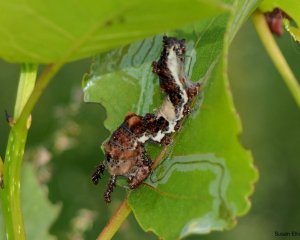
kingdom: Animalia
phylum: Arthropoda
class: Insecta
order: Lepidoptera
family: Nymphalidae
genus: Limenitis
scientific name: Limenitis archippus
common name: Viceroy
